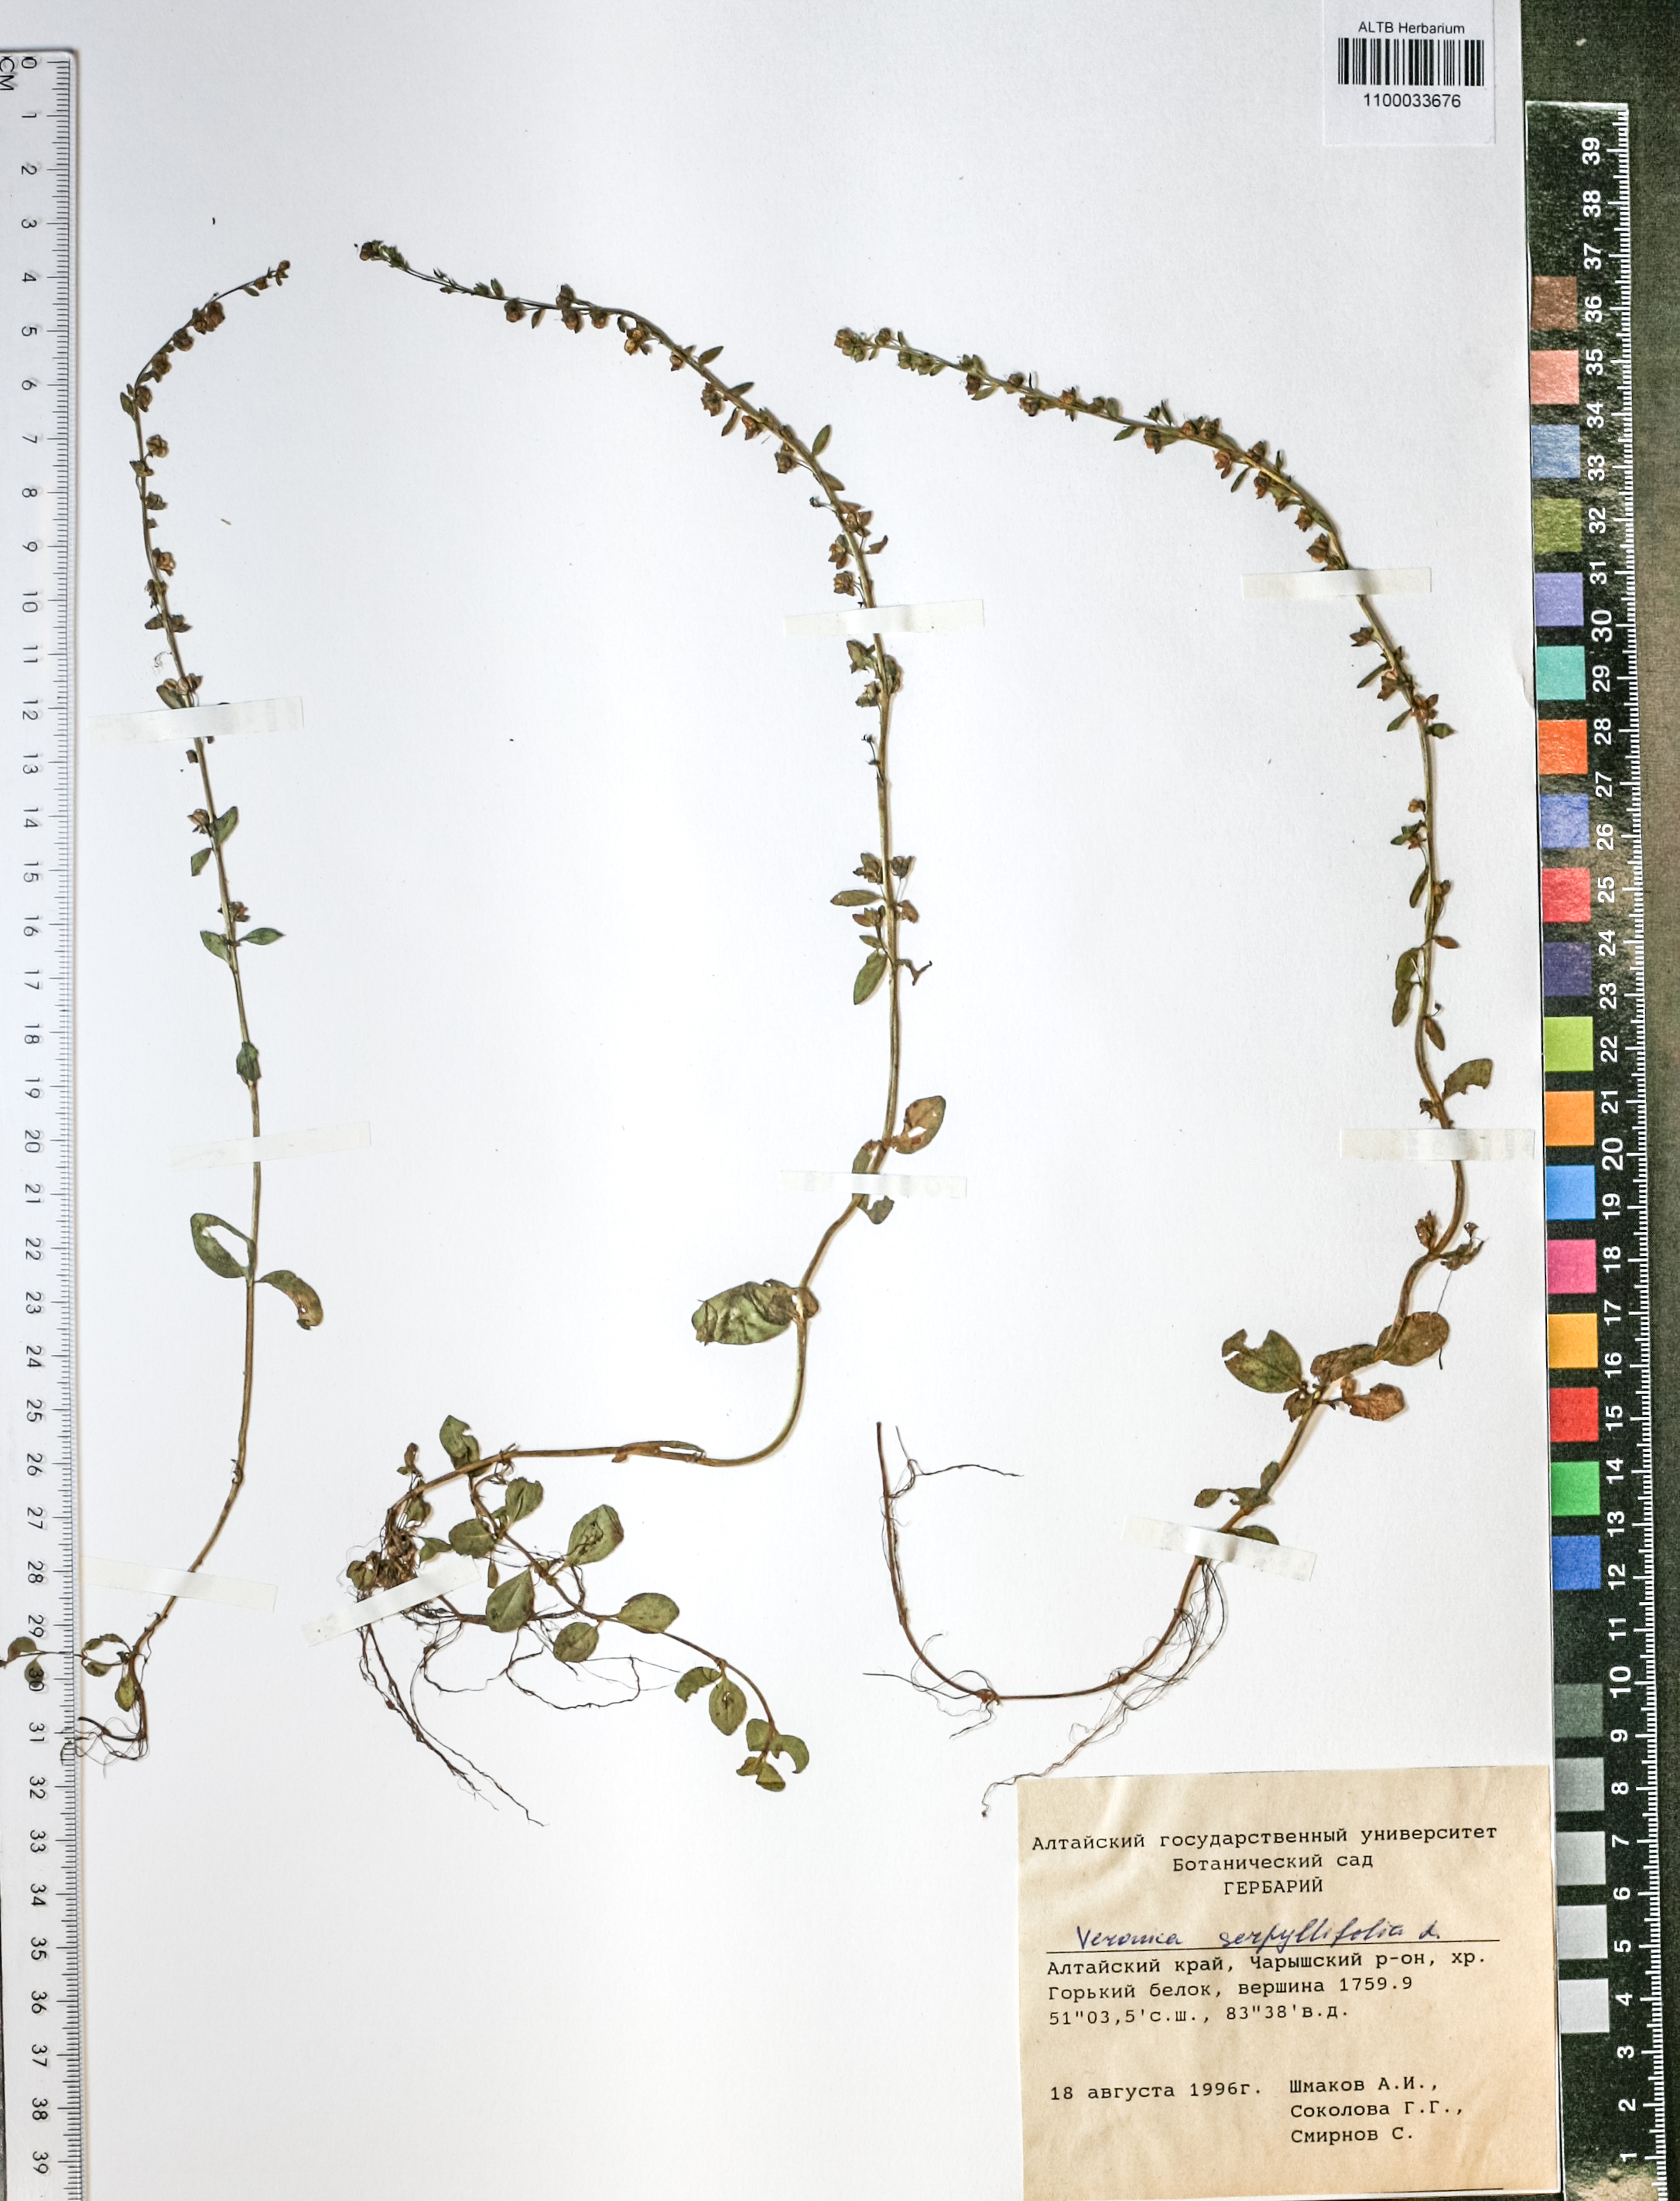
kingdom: Plantae
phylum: Tracheophyta
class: Magnoliopsida
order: Lamiales
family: Plantaginaceae
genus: Veronica
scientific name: Veronica serpyllifolia
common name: Thyme-leaved speedwell
